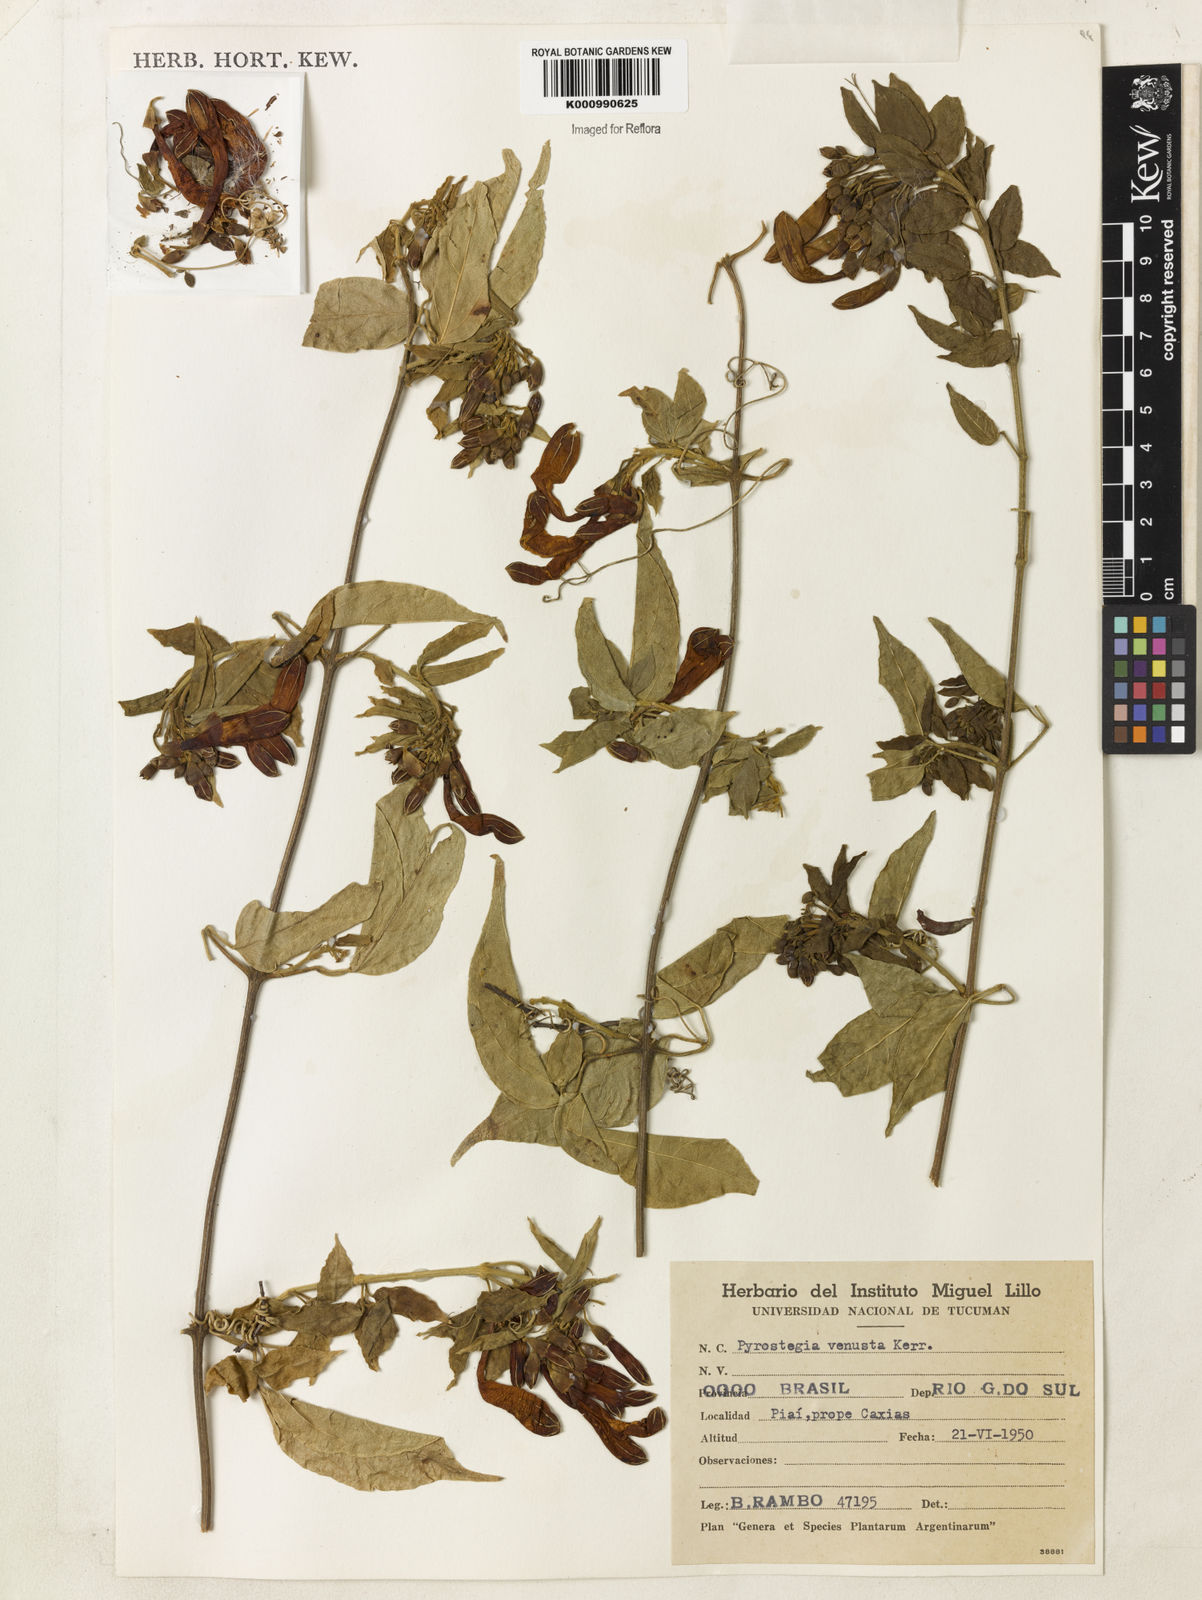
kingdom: Plantae
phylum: Tracheophyta
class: Magnoliopsida
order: Lamiales
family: Bignoniaceae
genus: Pyrostegia
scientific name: Pyrostegia venusta
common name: Flamevine
